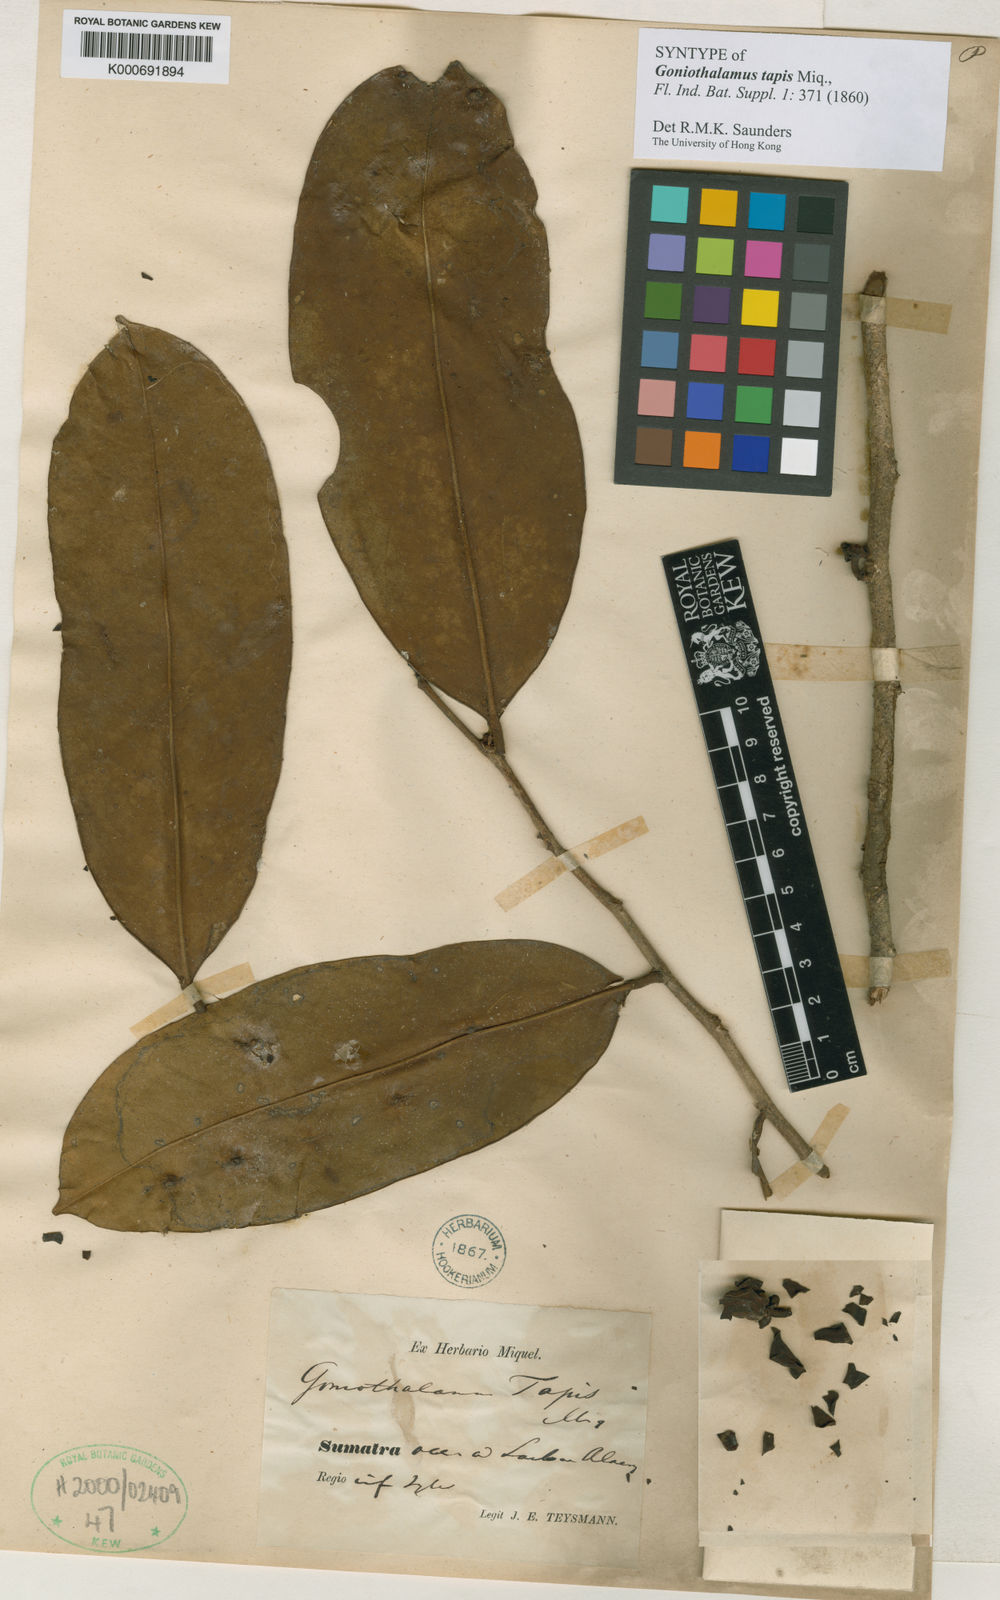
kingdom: Plantae
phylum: Tracheophyta
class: Magnoliopsida
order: Magnoliales
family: Annonaceae
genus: Goniothalamus
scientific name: Goniothalamus tapis
